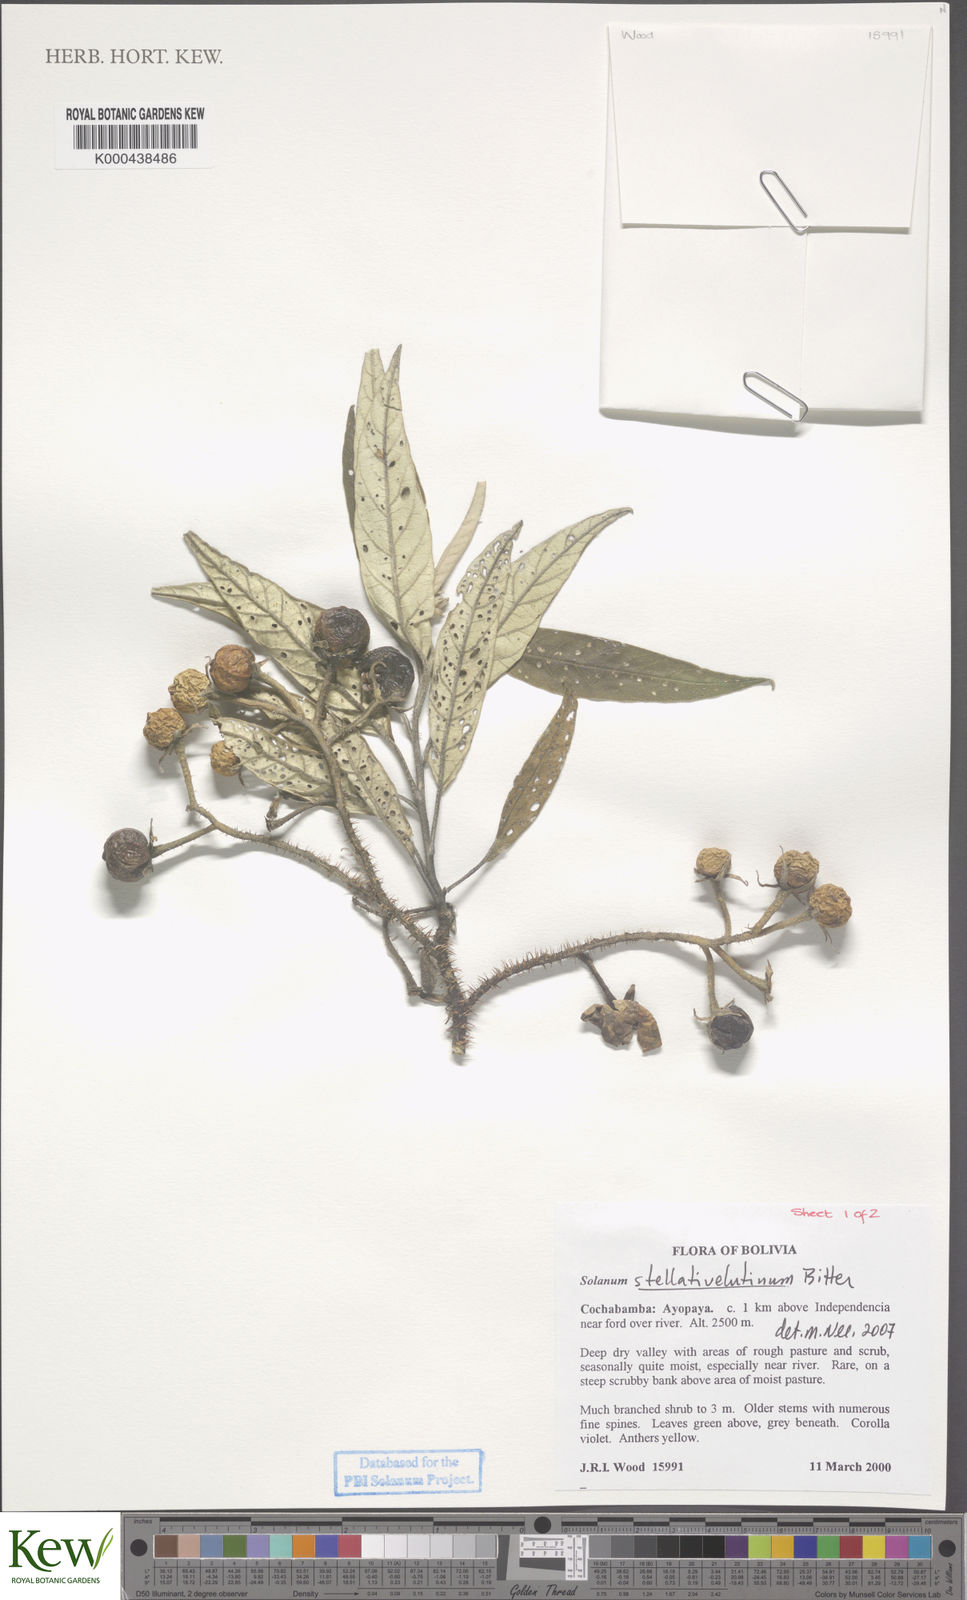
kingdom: Plantae
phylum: Tracheophyta
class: Magnoliopsida
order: Solanales
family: Solanaceae
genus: Solanum
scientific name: Solanum stellativelutinum
